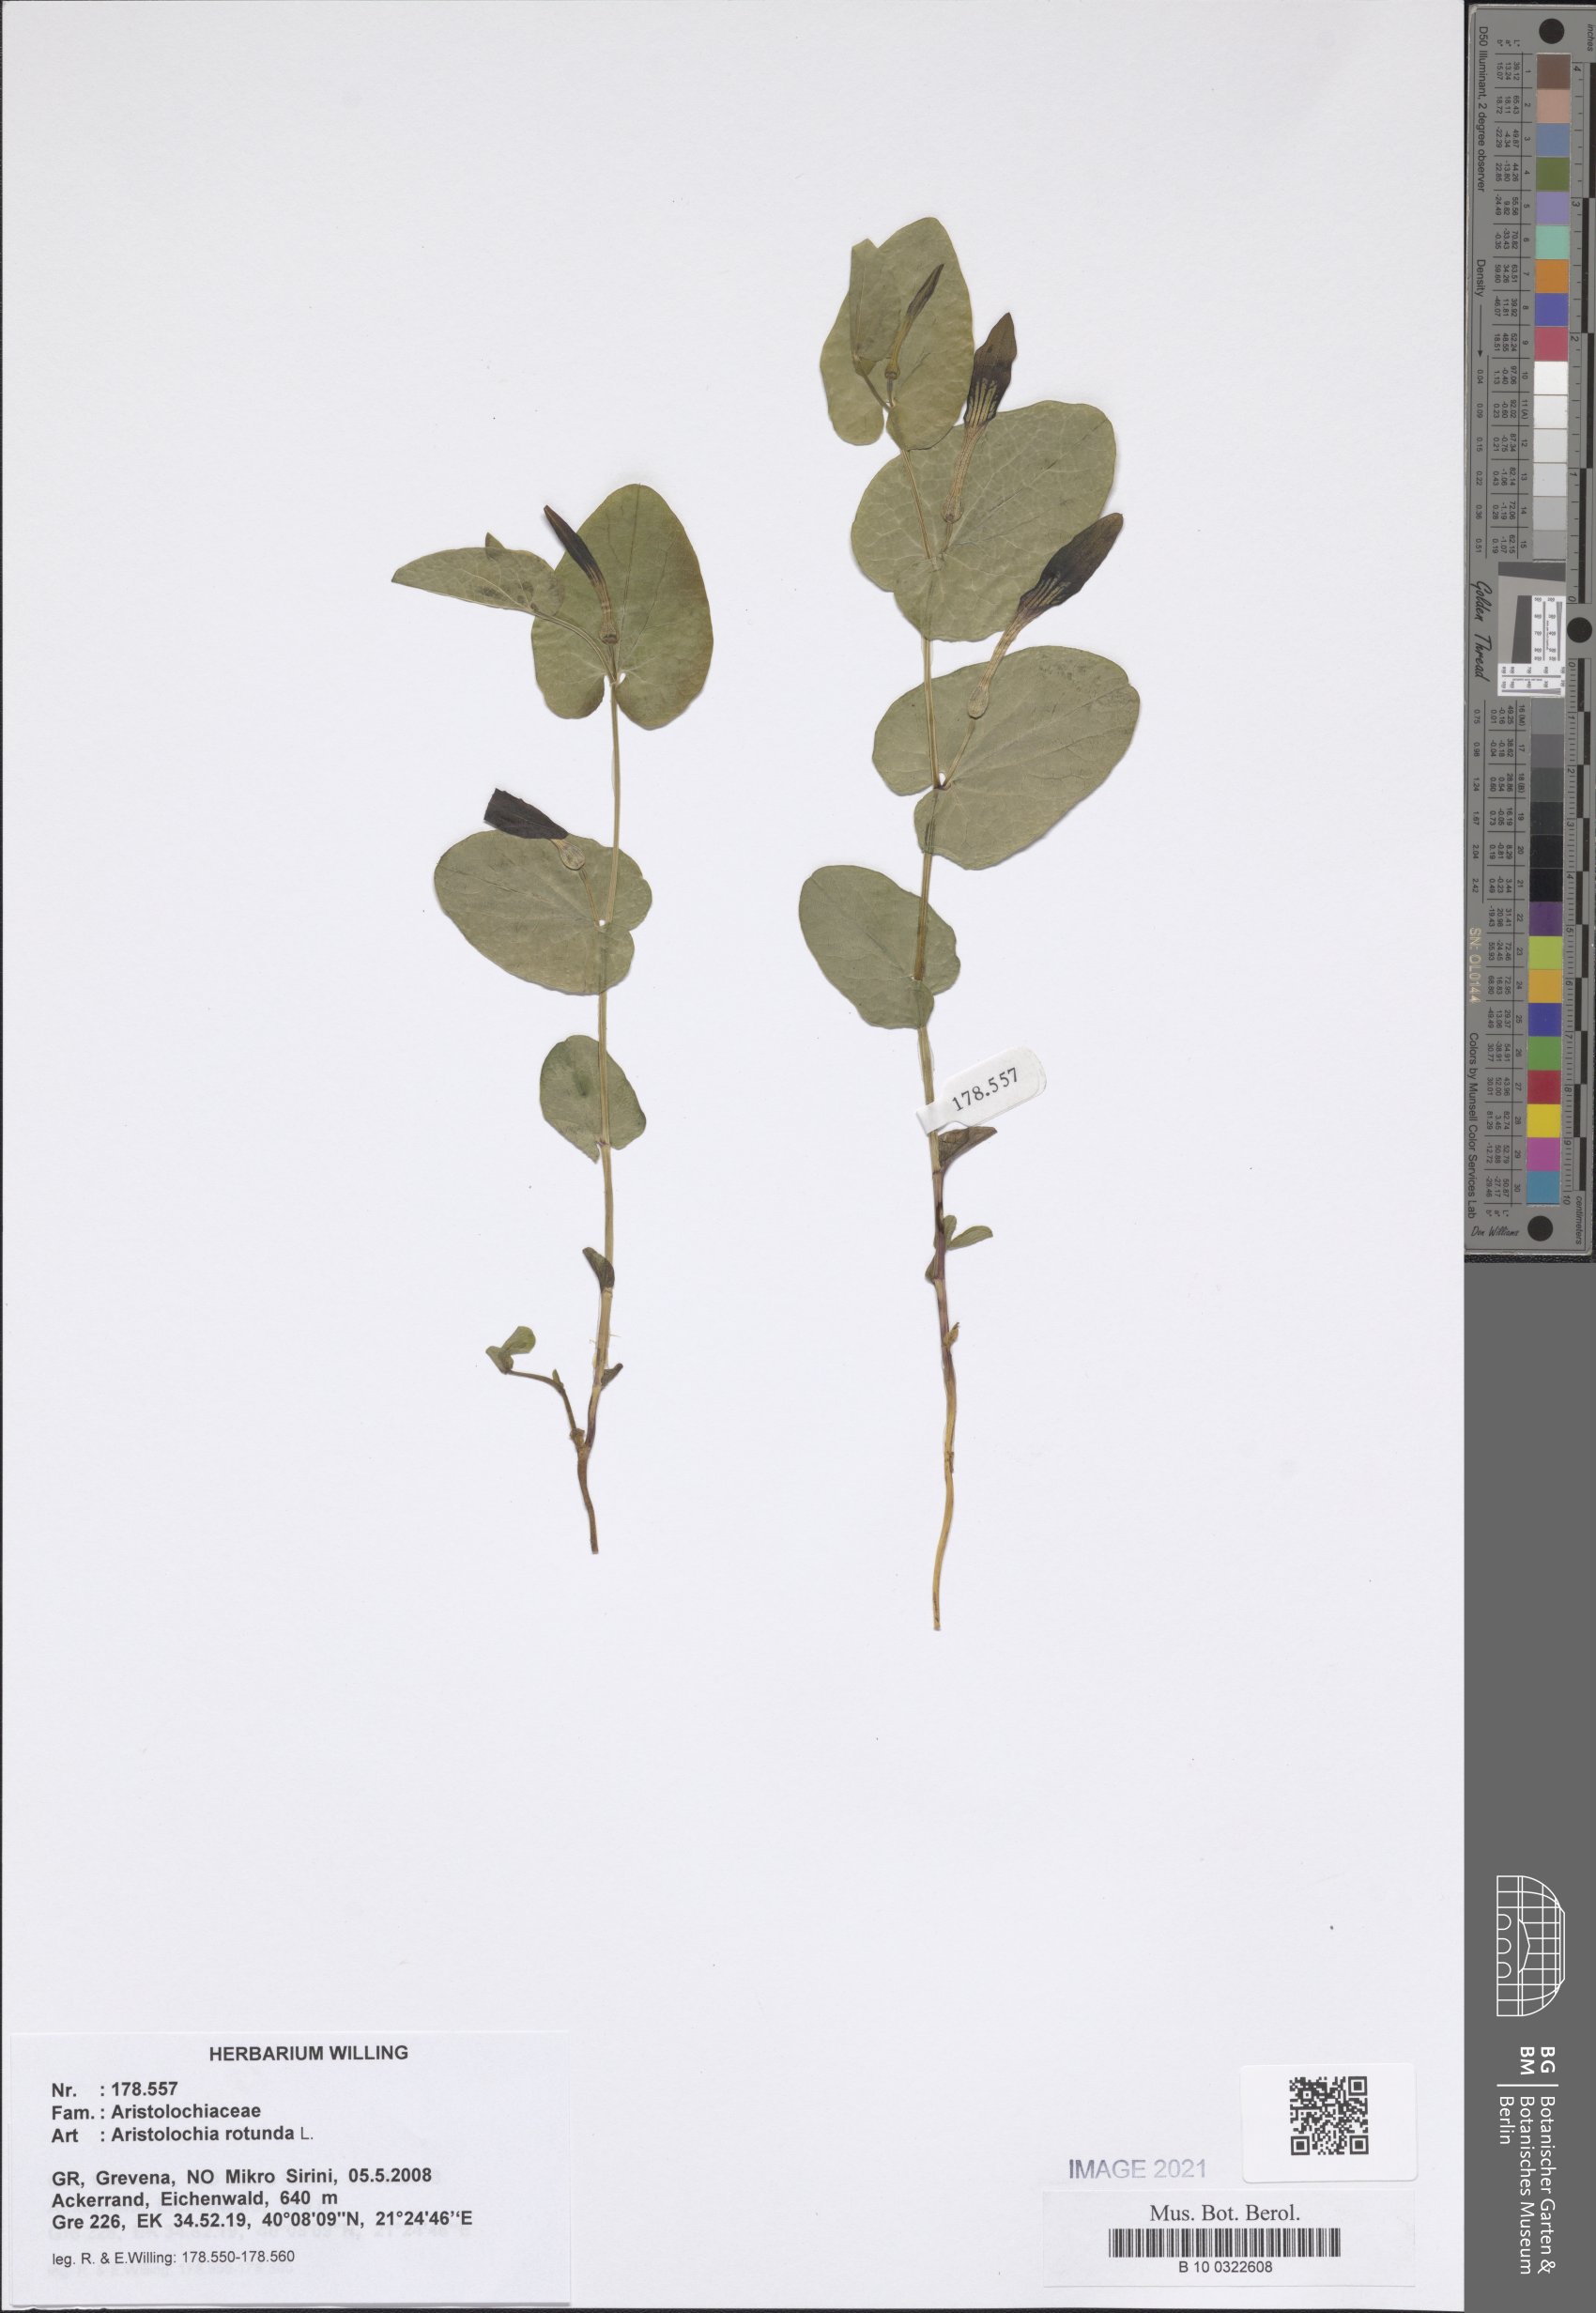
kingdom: Plantae
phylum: Tracheophyta
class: Magnoliopsida
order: Piperales
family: Aristolochiaceae
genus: Aristolochia
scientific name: Aristolochia rotunda
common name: Smearwort
